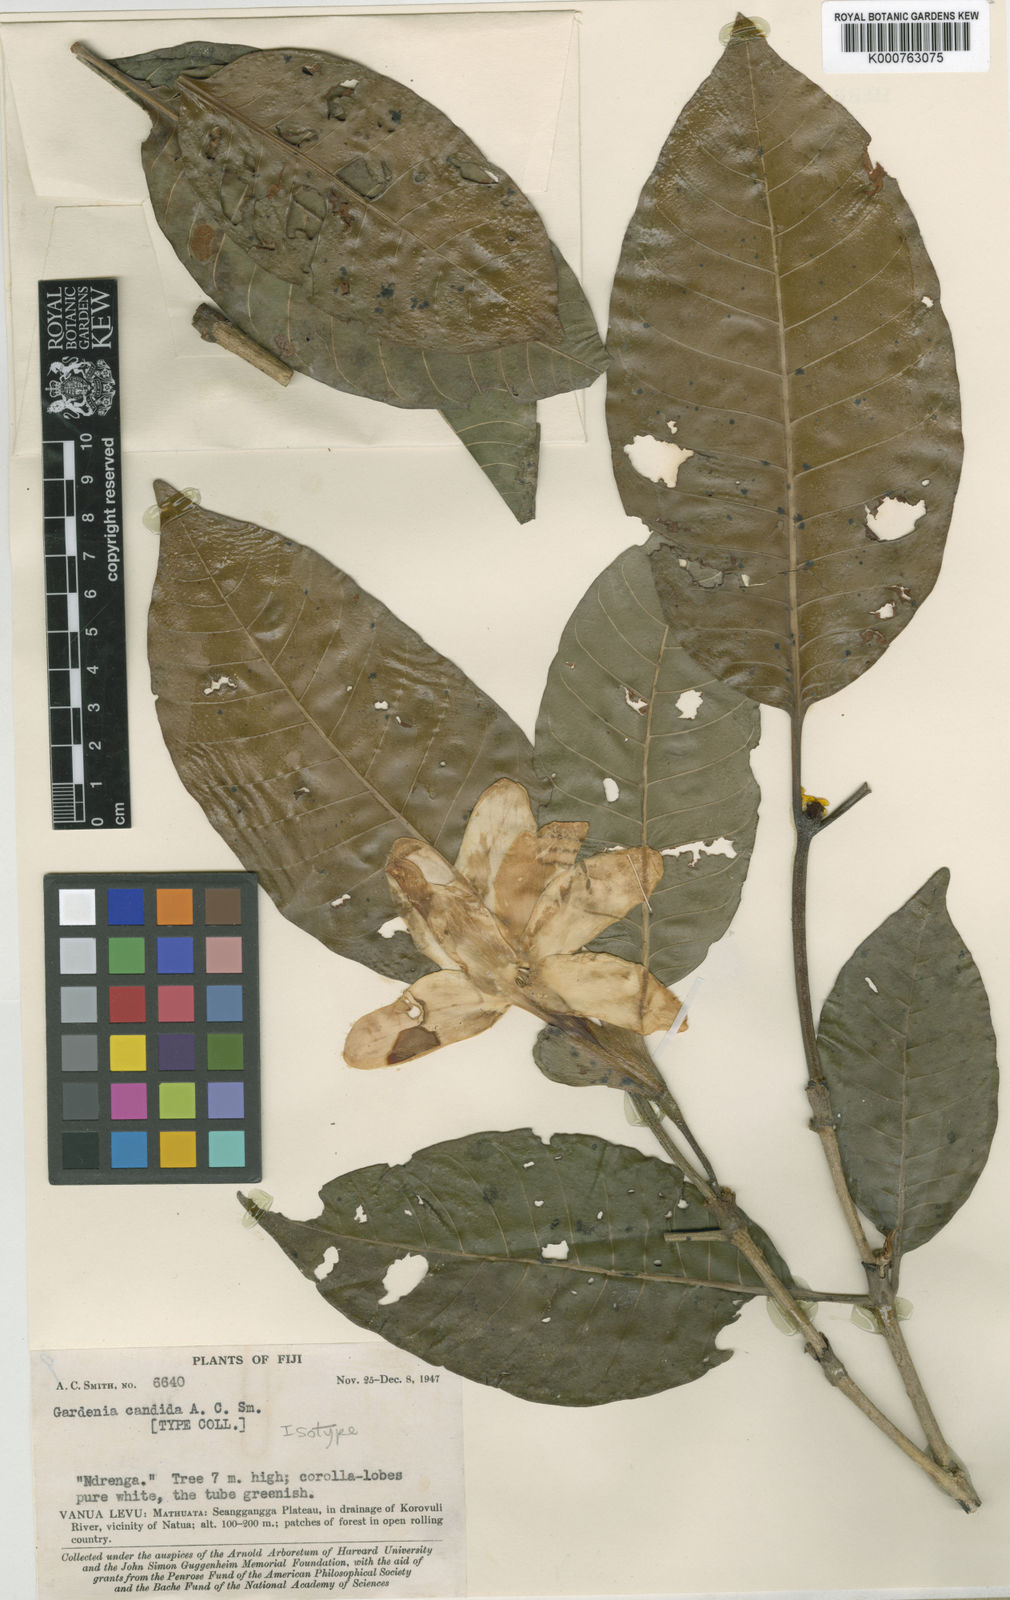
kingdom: Plantae
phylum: Tracheophyta
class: Magnoliopsida
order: Gentianales
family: Rubiaceae
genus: Gardenia
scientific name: Gardenia candida
